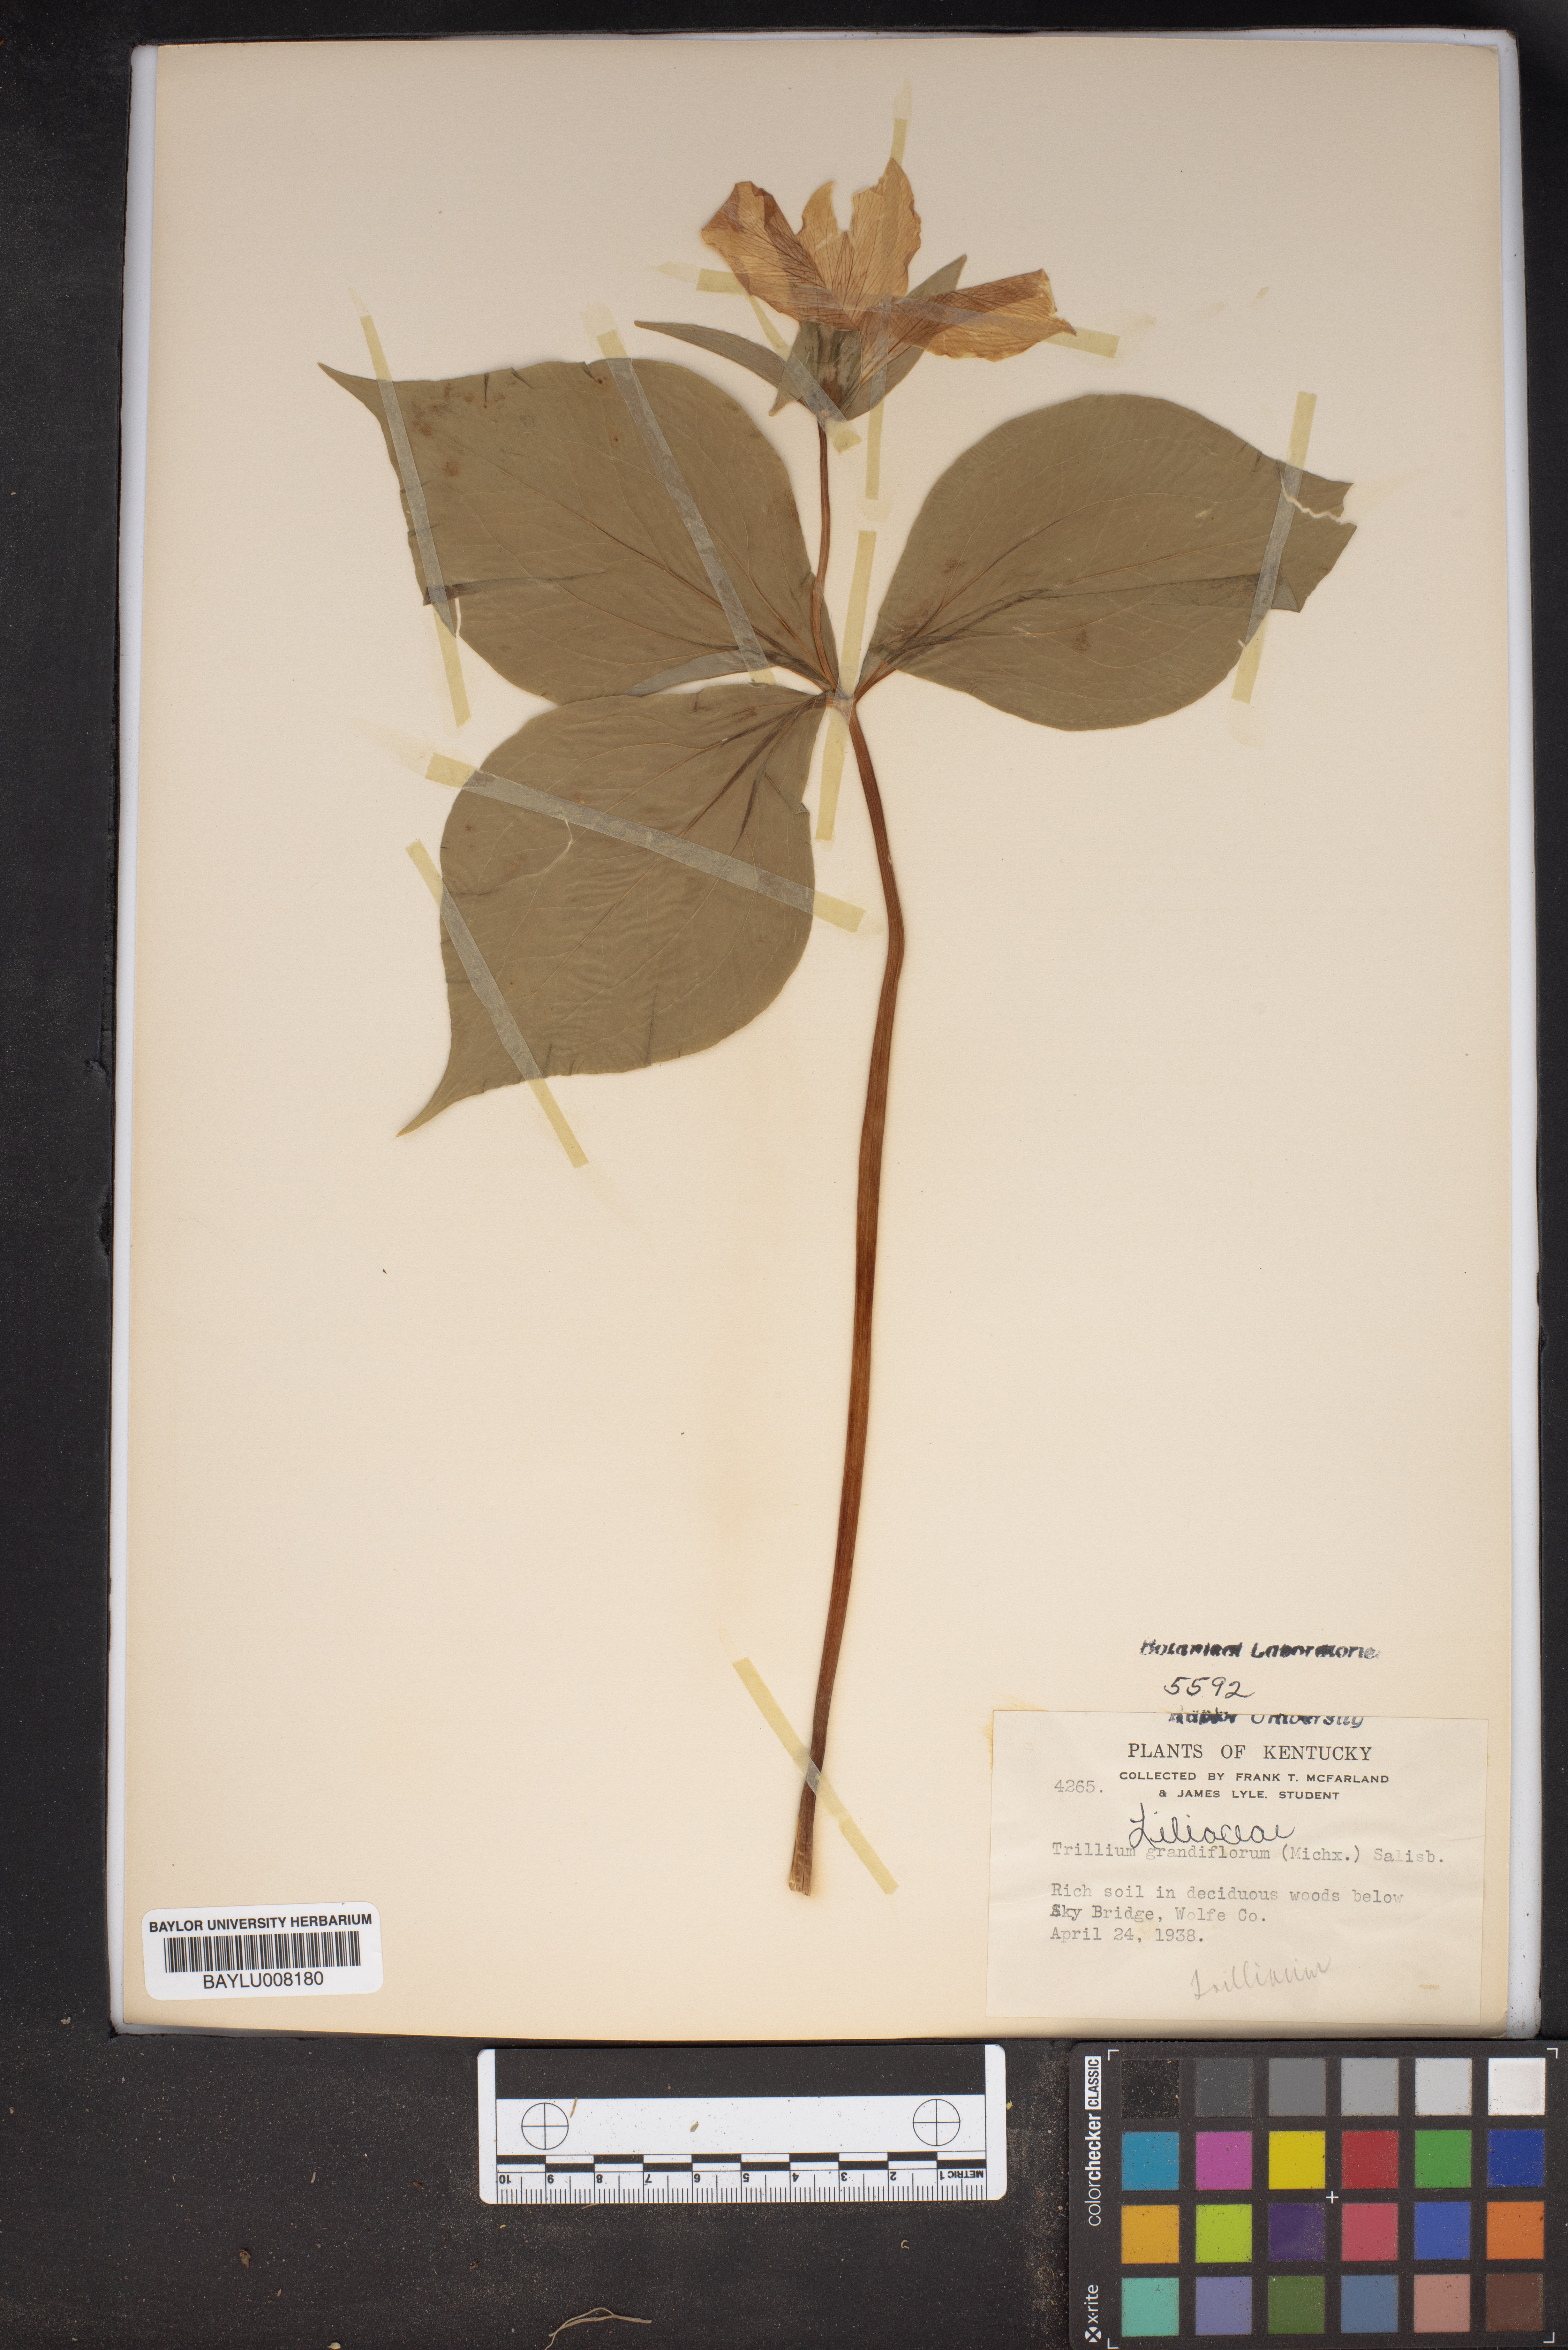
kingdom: Plantae
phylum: Tracheophyta
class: Liliopsida
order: Liliales
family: Melanthiaceae
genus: Trillium
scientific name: Trillium grandiflorum
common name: Great white trillium
